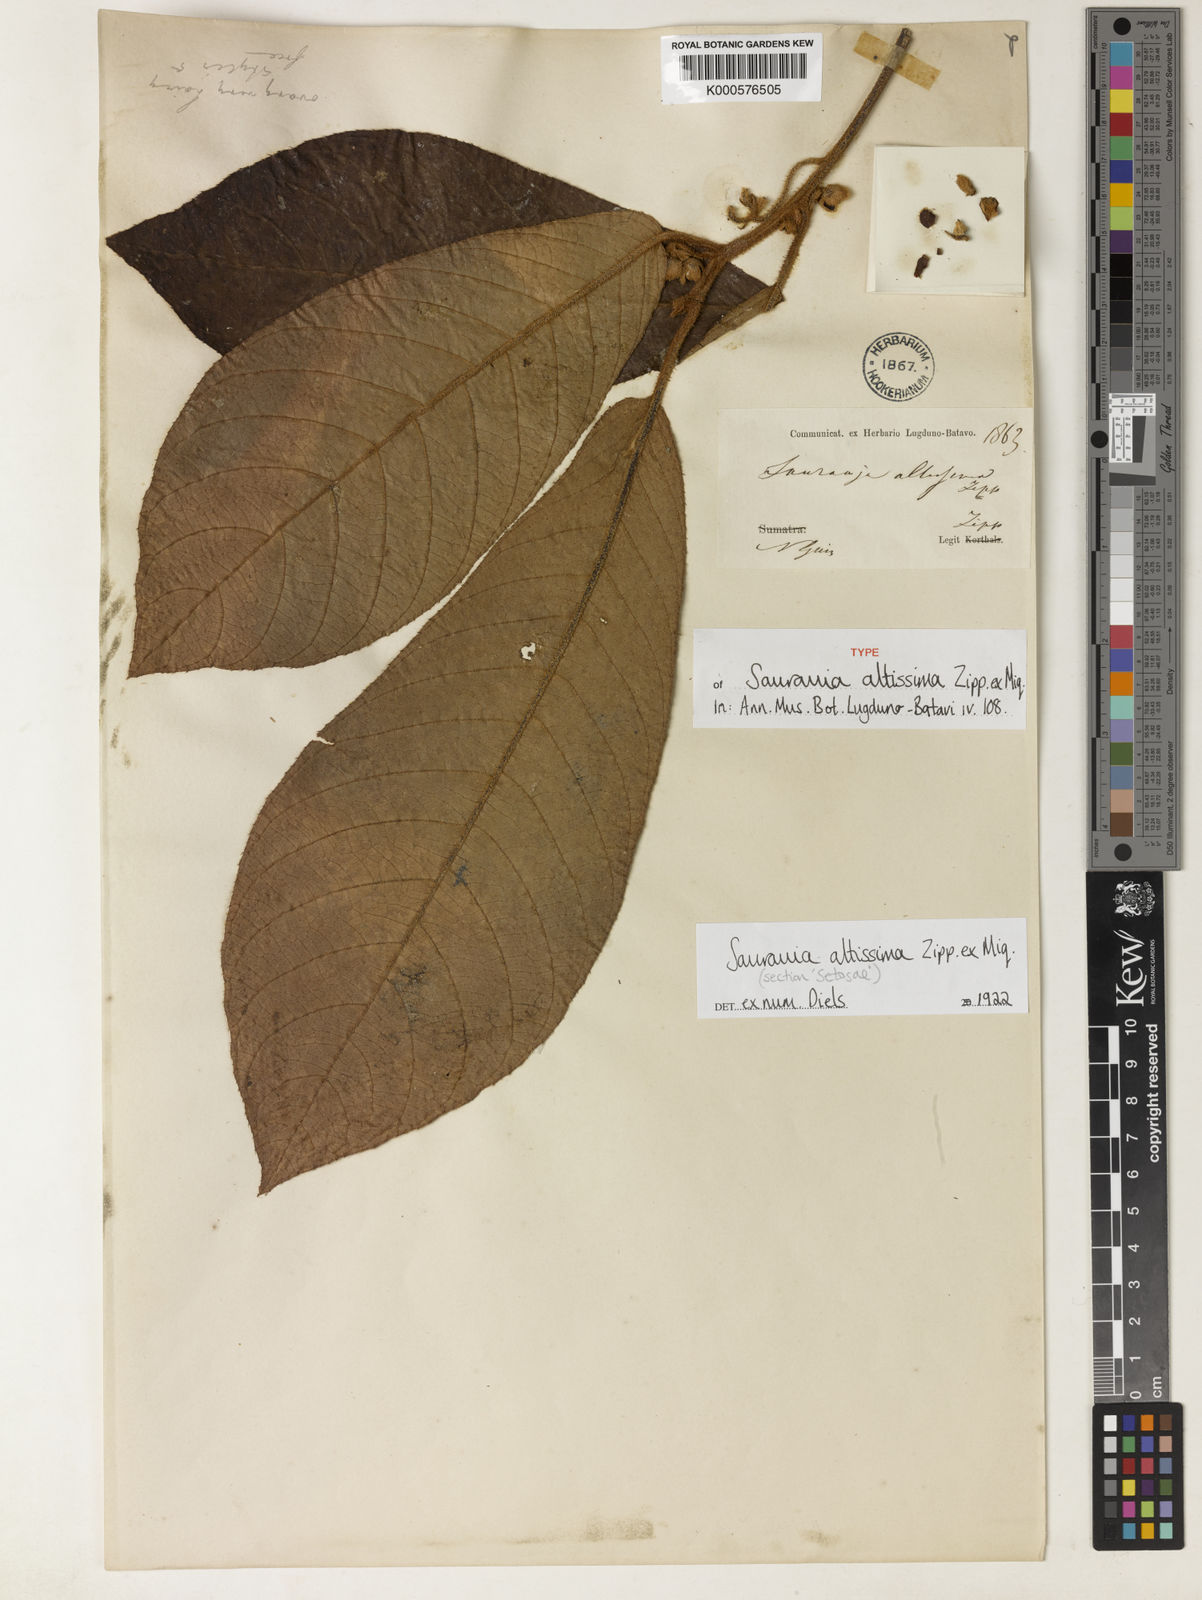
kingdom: Plantae
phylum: Tracheophyta
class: Magnoliopsida
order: Ericales
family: Actinidiaceae
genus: Saurauia
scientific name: Saurauia altissima
